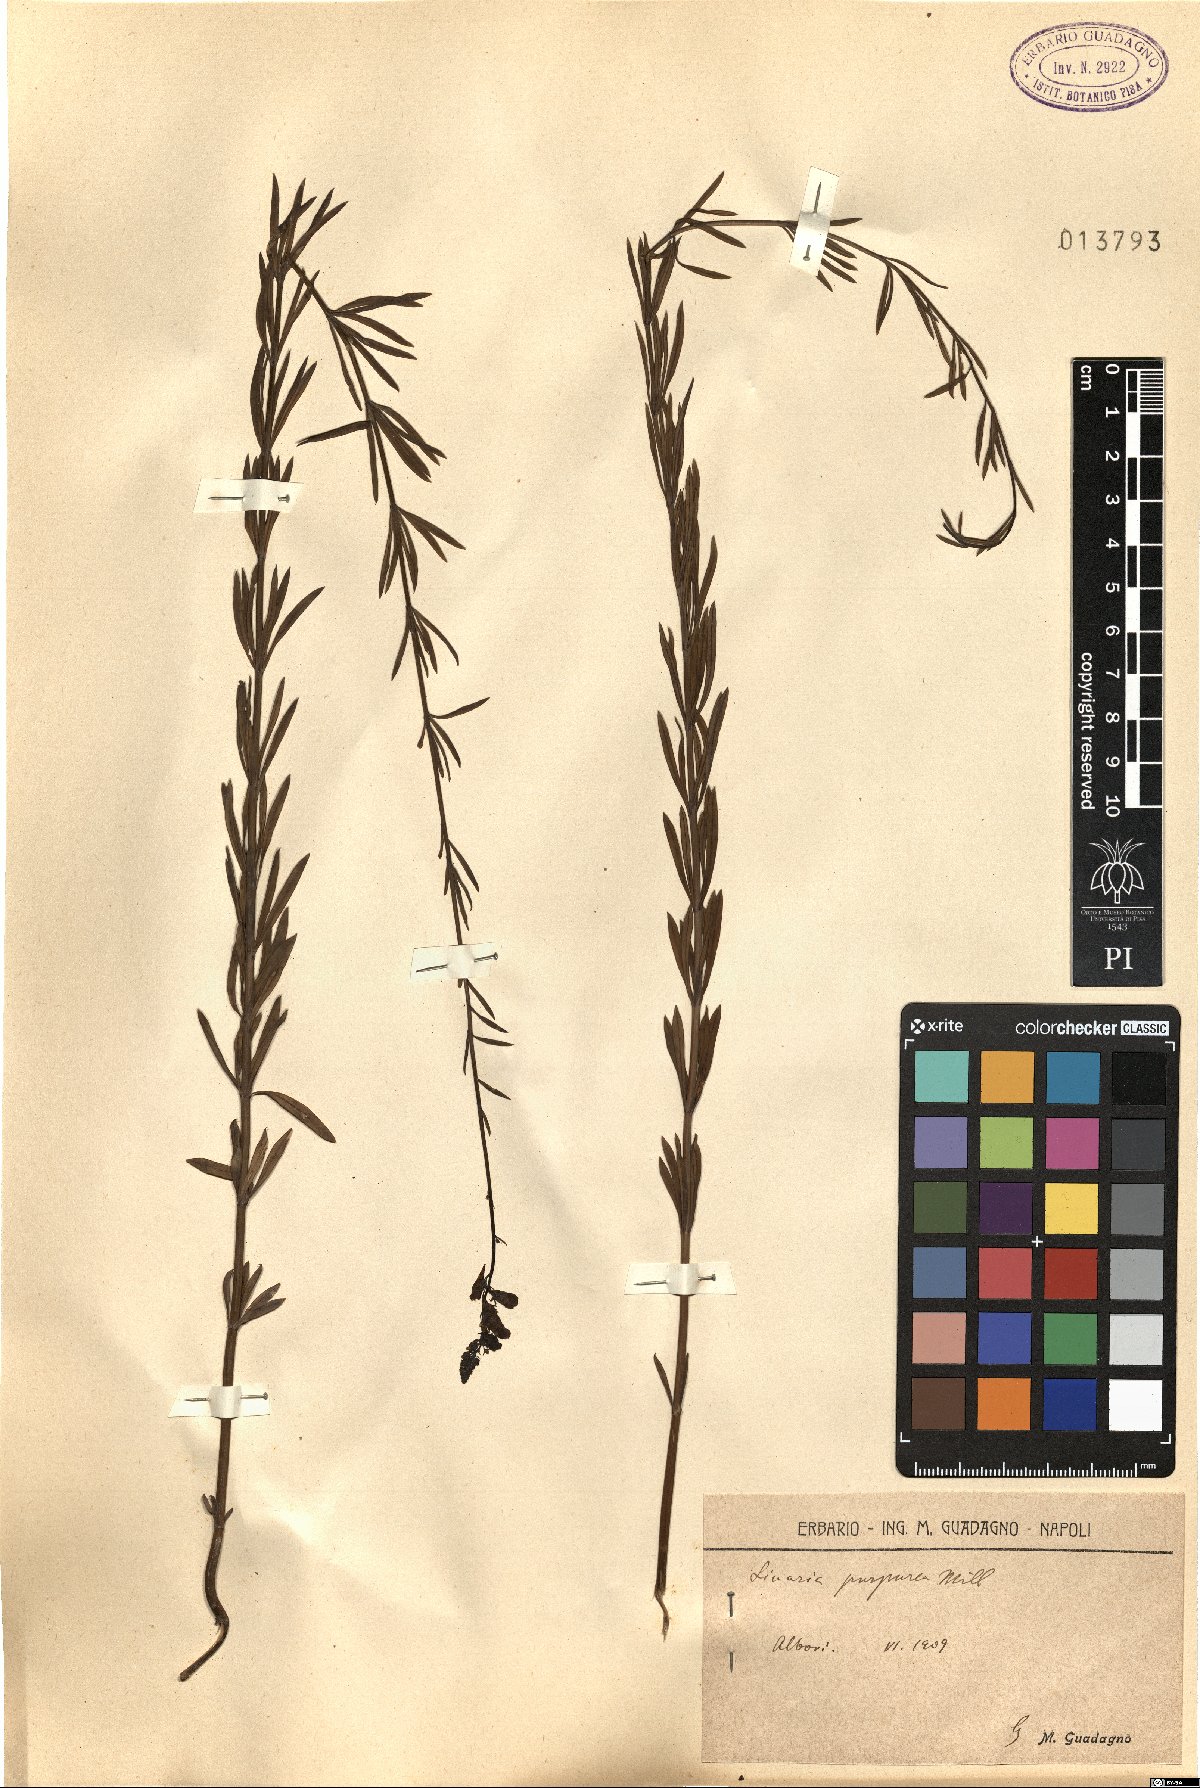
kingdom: Plantae
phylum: Tracheophyta
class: Magnoliopsida
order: Lamiales
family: Plantaginaceae
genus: Linaria
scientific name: Linaria purpurea
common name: Purple toadflax
